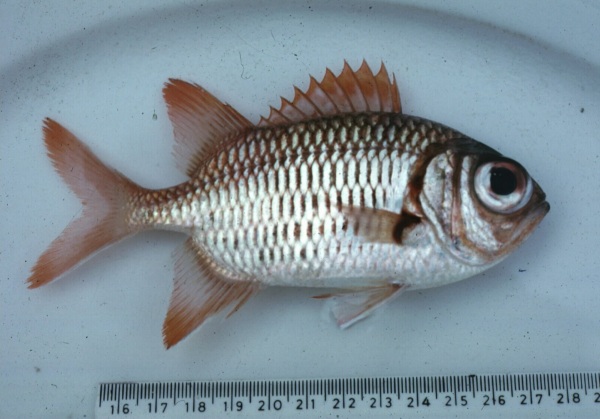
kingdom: Animalia
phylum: Chordata
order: Beryciformes
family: Holocentridae
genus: Myripristis
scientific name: Myripristis hexagona
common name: Blacktip soldierfish
